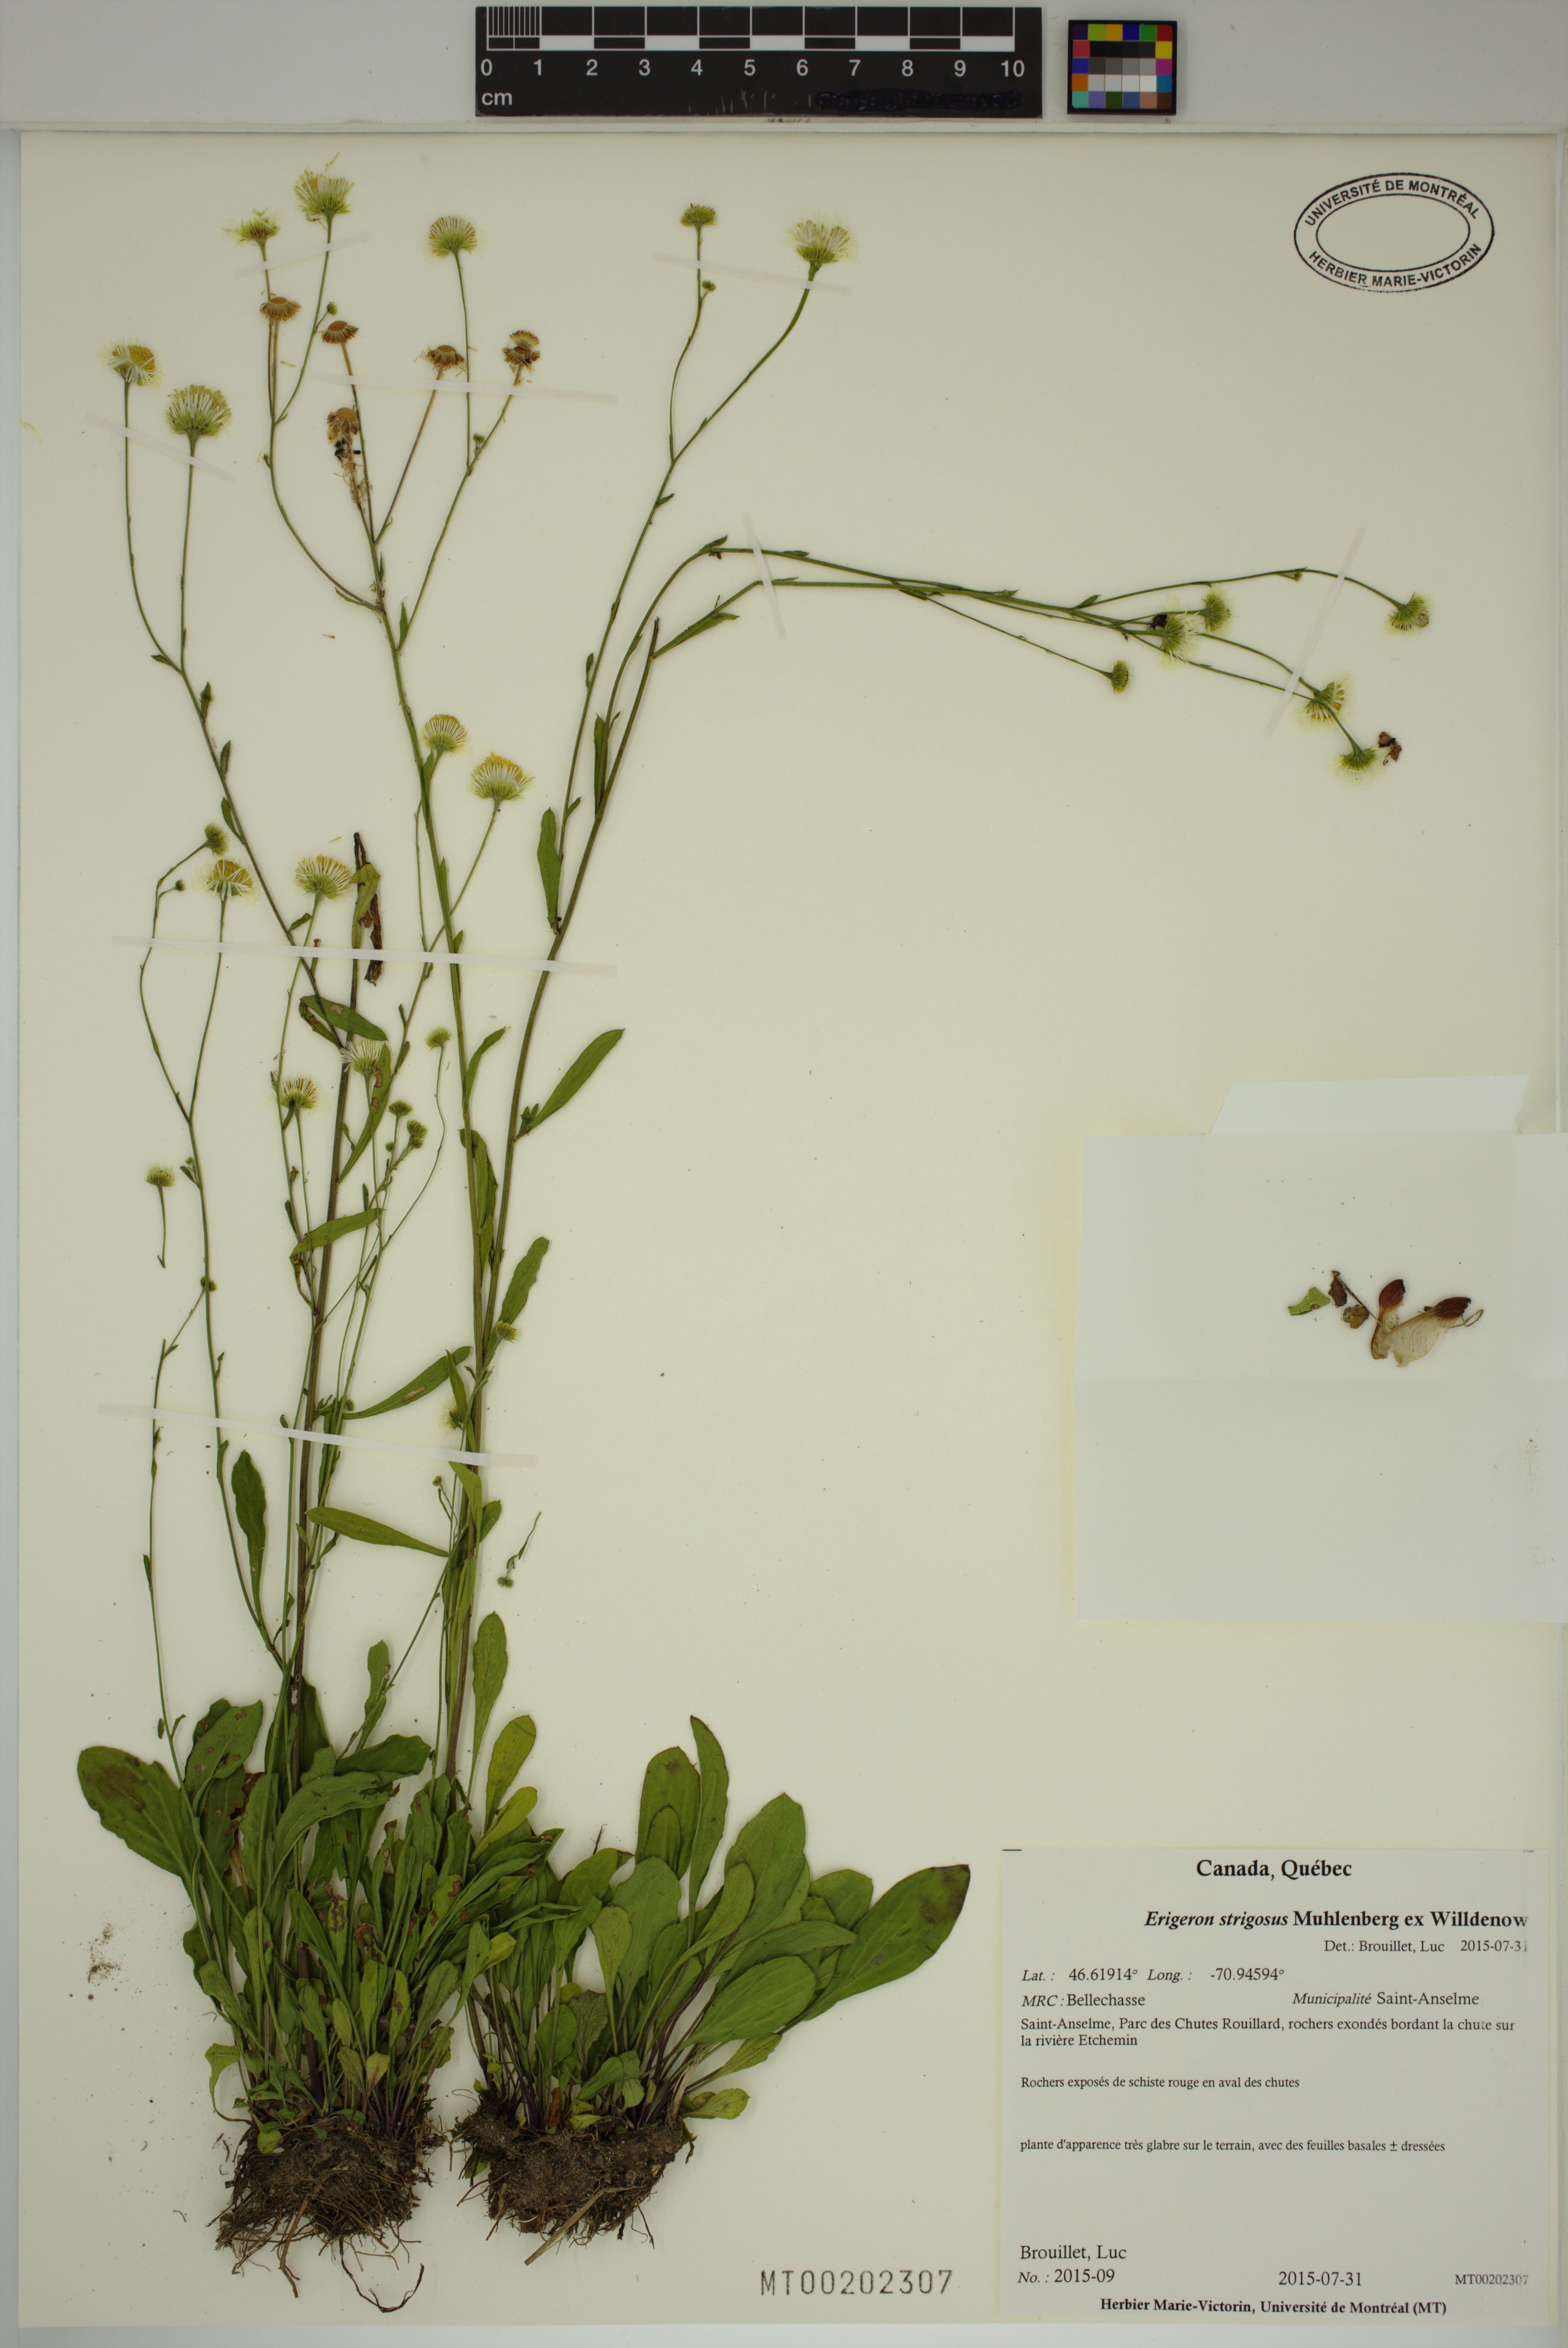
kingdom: Plantae
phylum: Tracheophyta
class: Magnoliopsida
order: Asterales
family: Asteraceae
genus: Erigeron
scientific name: Erigeron strigosus
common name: Common eastern fleabane
